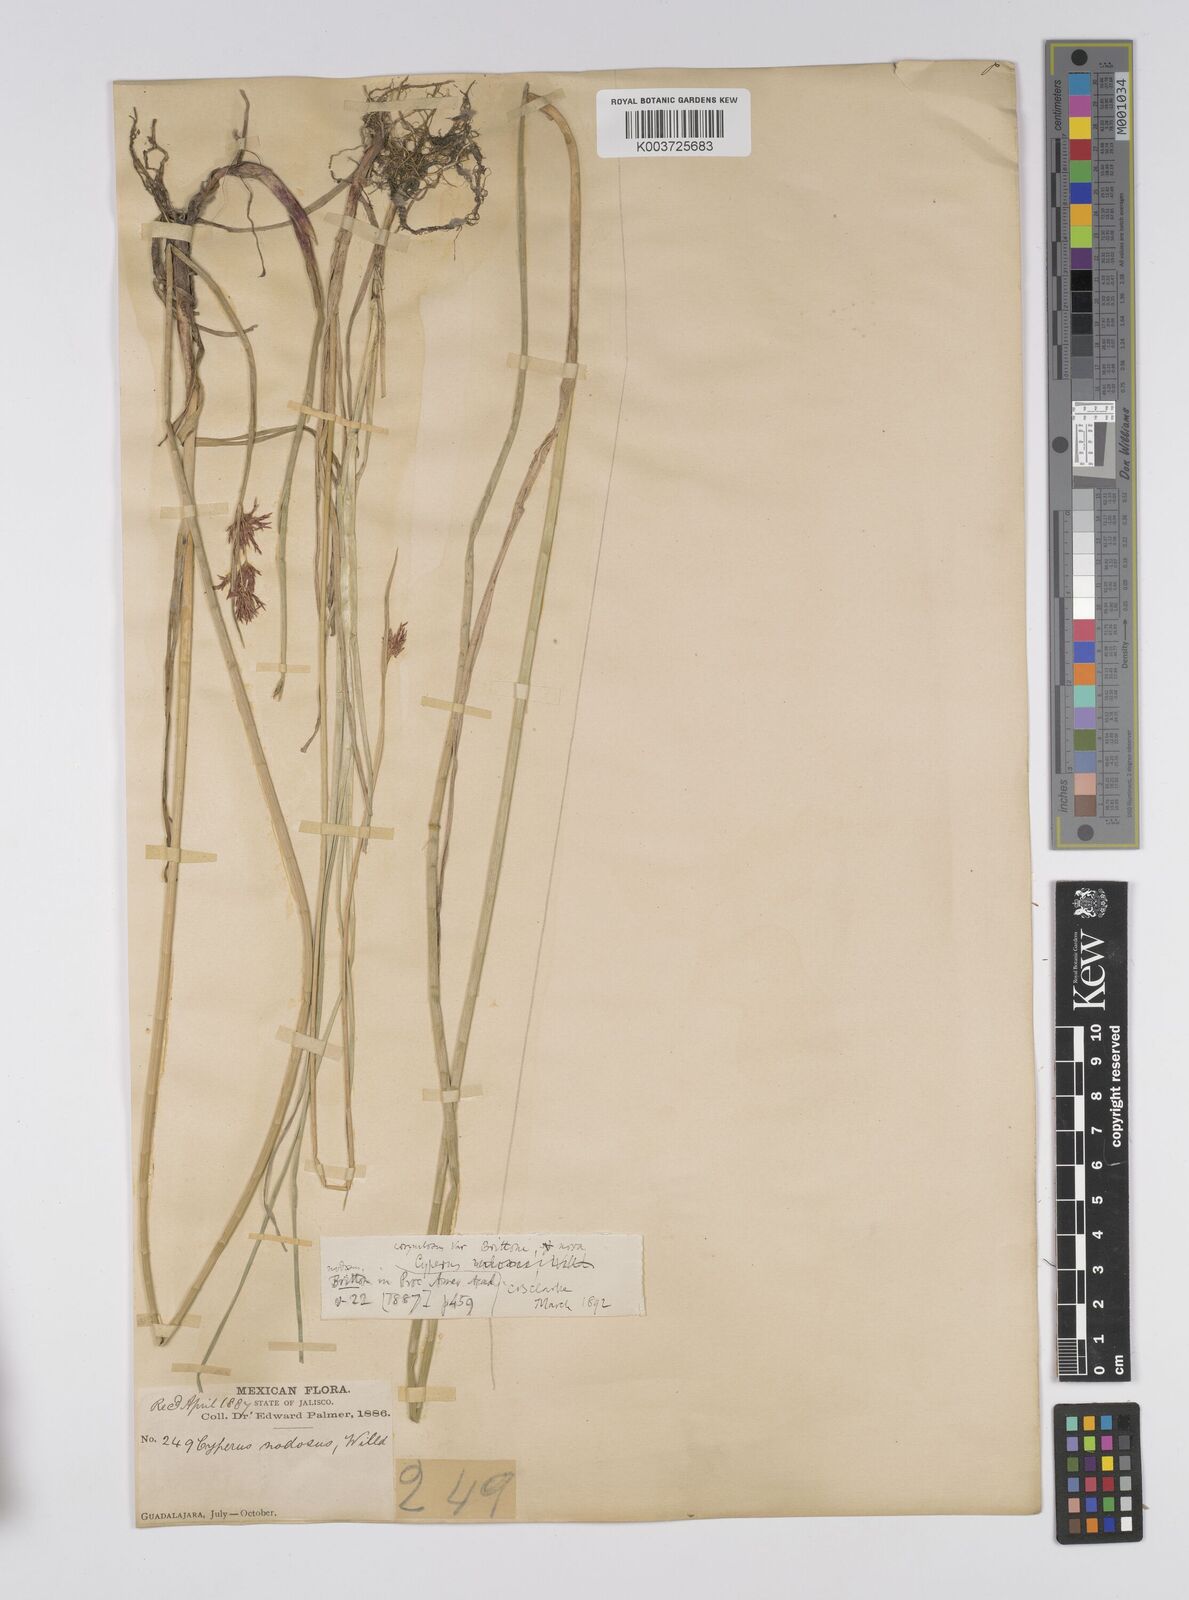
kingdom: Plantae
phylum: Tracheophyta
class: Liliopsida
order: Poales
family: Cyperaceae
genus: Cyperus
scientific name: Cyperus articulatus
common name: Jointed flatsedge
